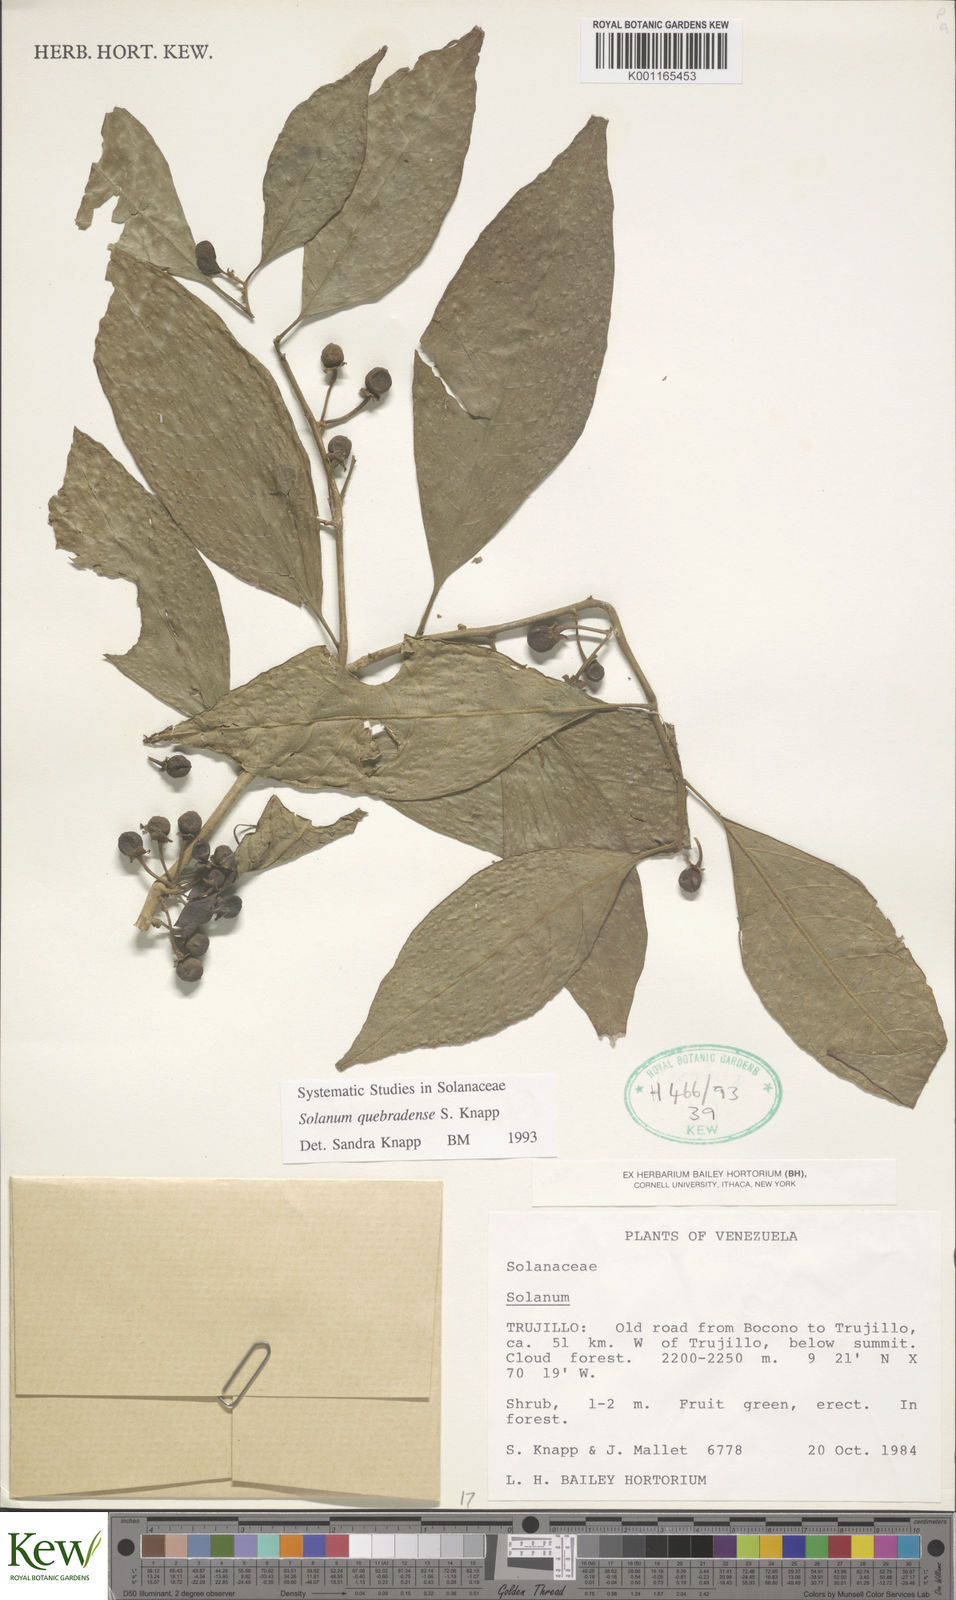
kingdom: Plantae
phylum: Tracheophyta
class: Magnoliopsida
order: Solanales
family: Solanaceae
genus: Solanum
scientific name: Solanum quebradense
